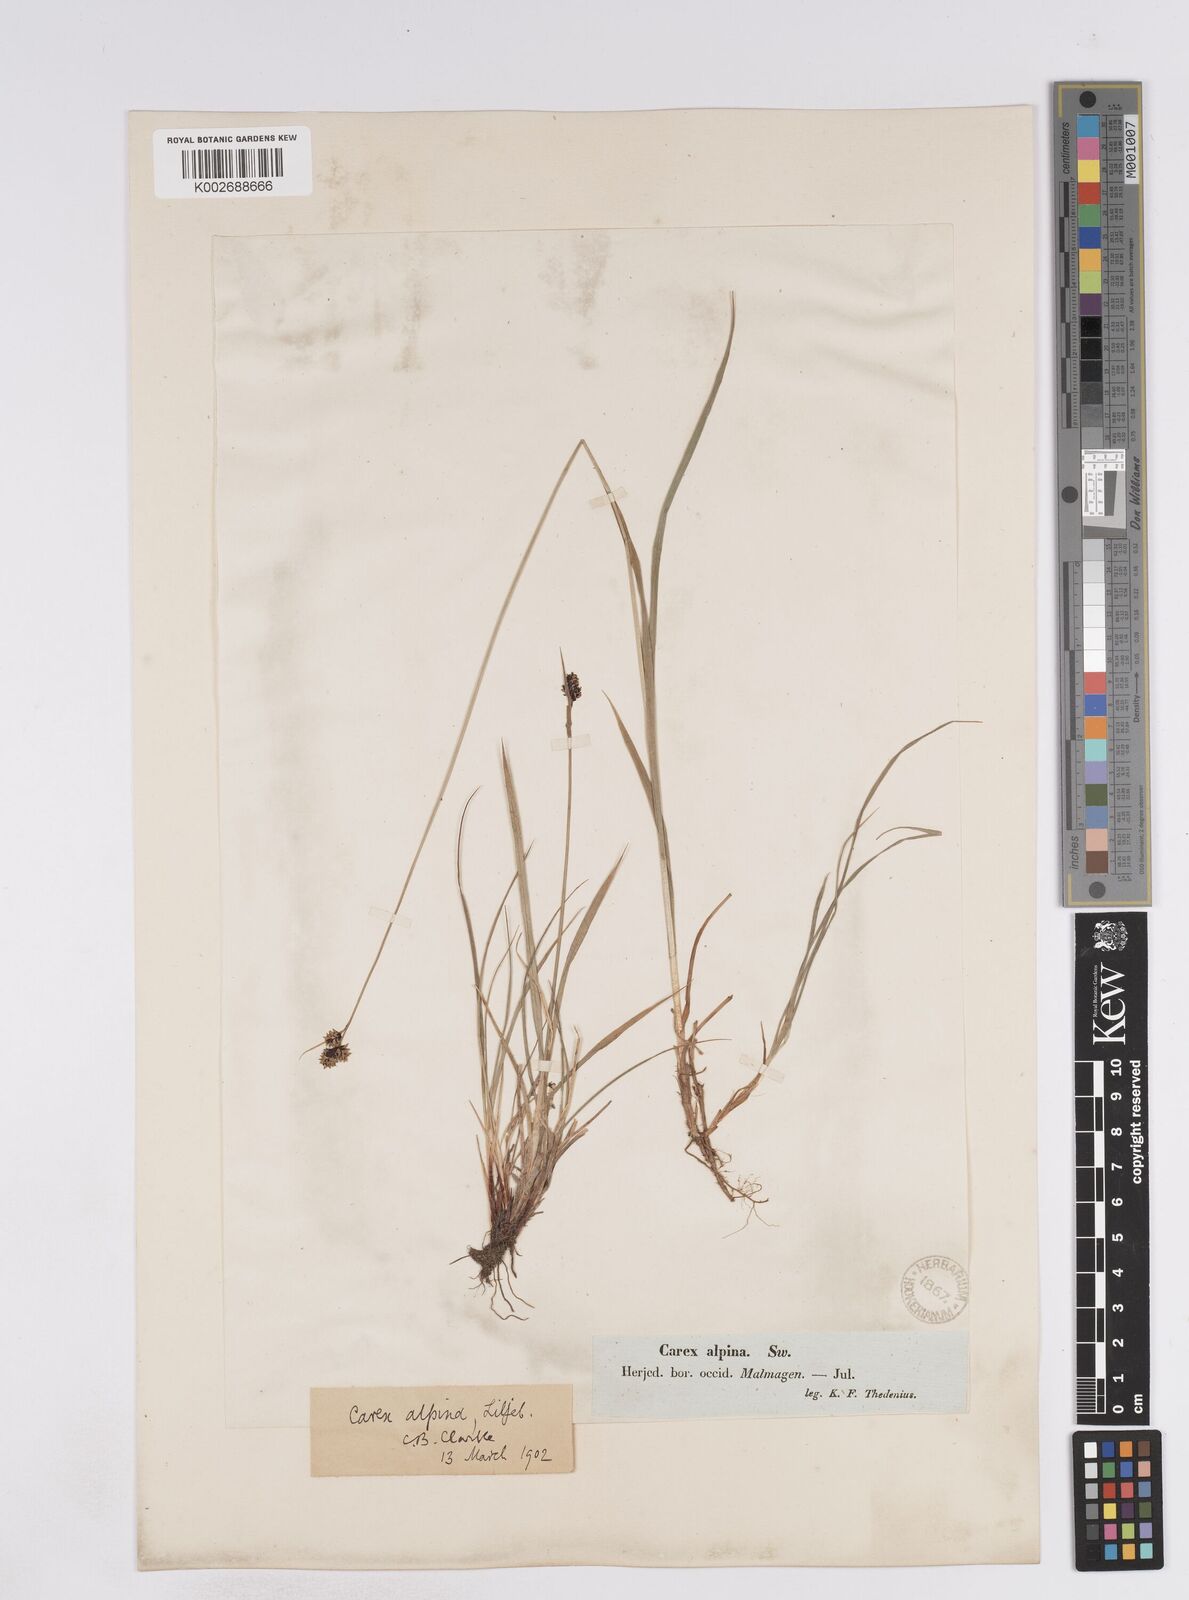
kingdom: Plantae
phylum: Tracheophyta
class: Liliopsida
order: Poales
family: Cyperaceae
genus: Carex
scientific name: Carex media
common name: Alpine sedge
